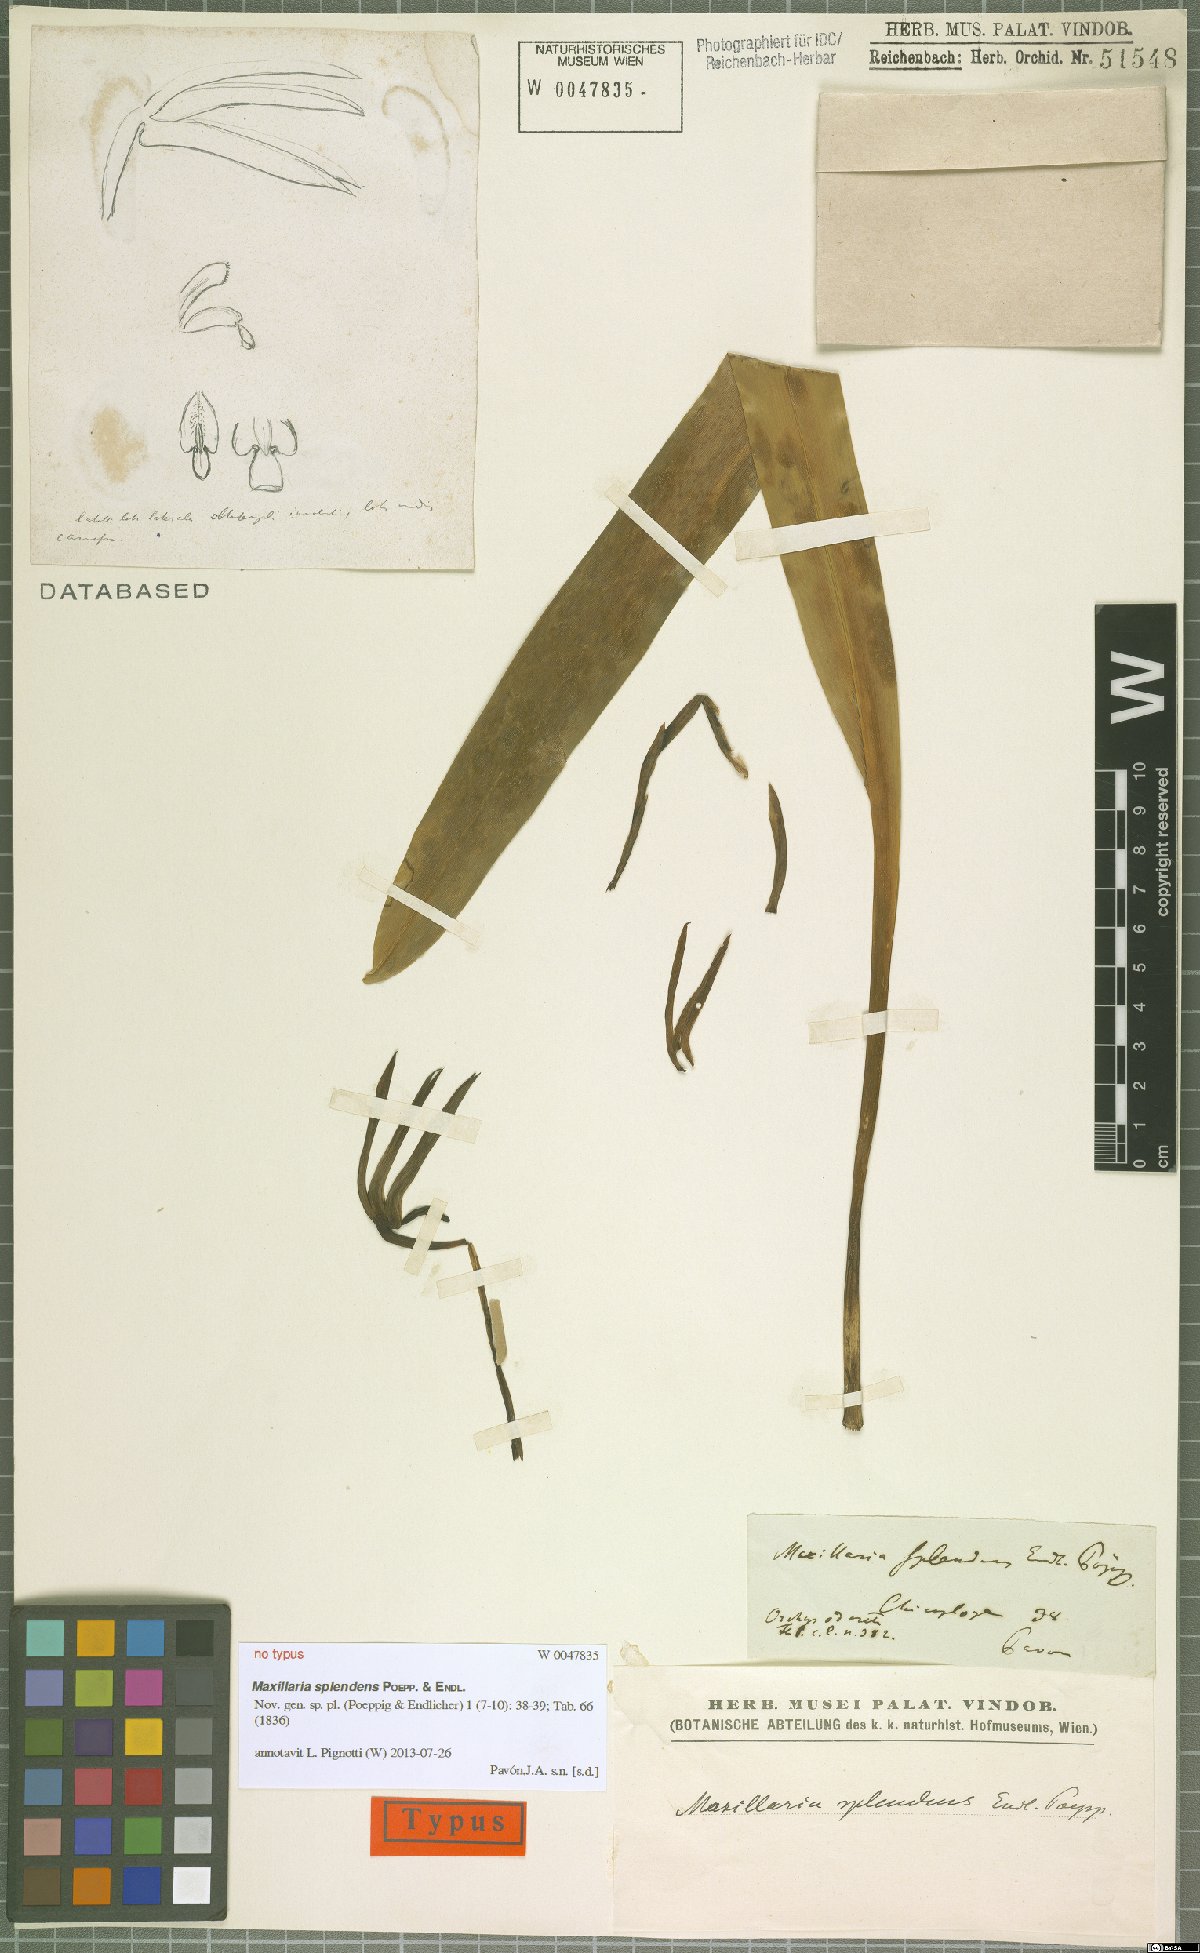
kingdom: Plantae
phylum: Tracheophyta
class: Liliopsida
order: Asparagales
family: Orchidaceae
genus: Maxillaria
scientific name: Maxillaria splendens
